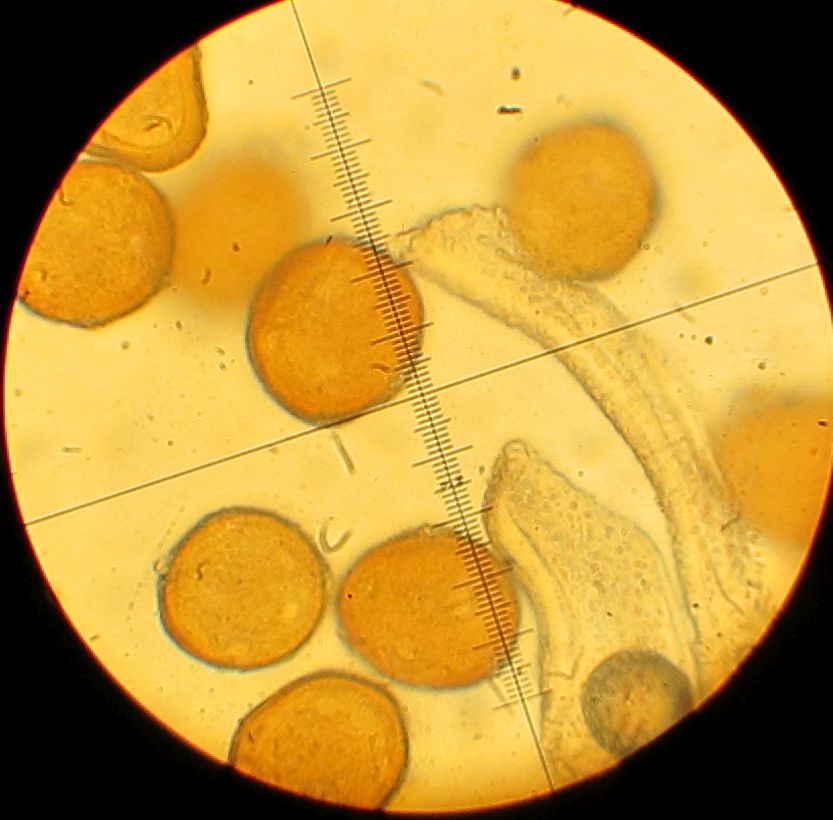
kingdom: Fungi
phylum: Basidiomycota
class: Pucciniomycetes
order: Pucciniales
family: Gymnosporangiaceae
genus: Gymnosporangium
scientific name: Gymnosporangium confusum
